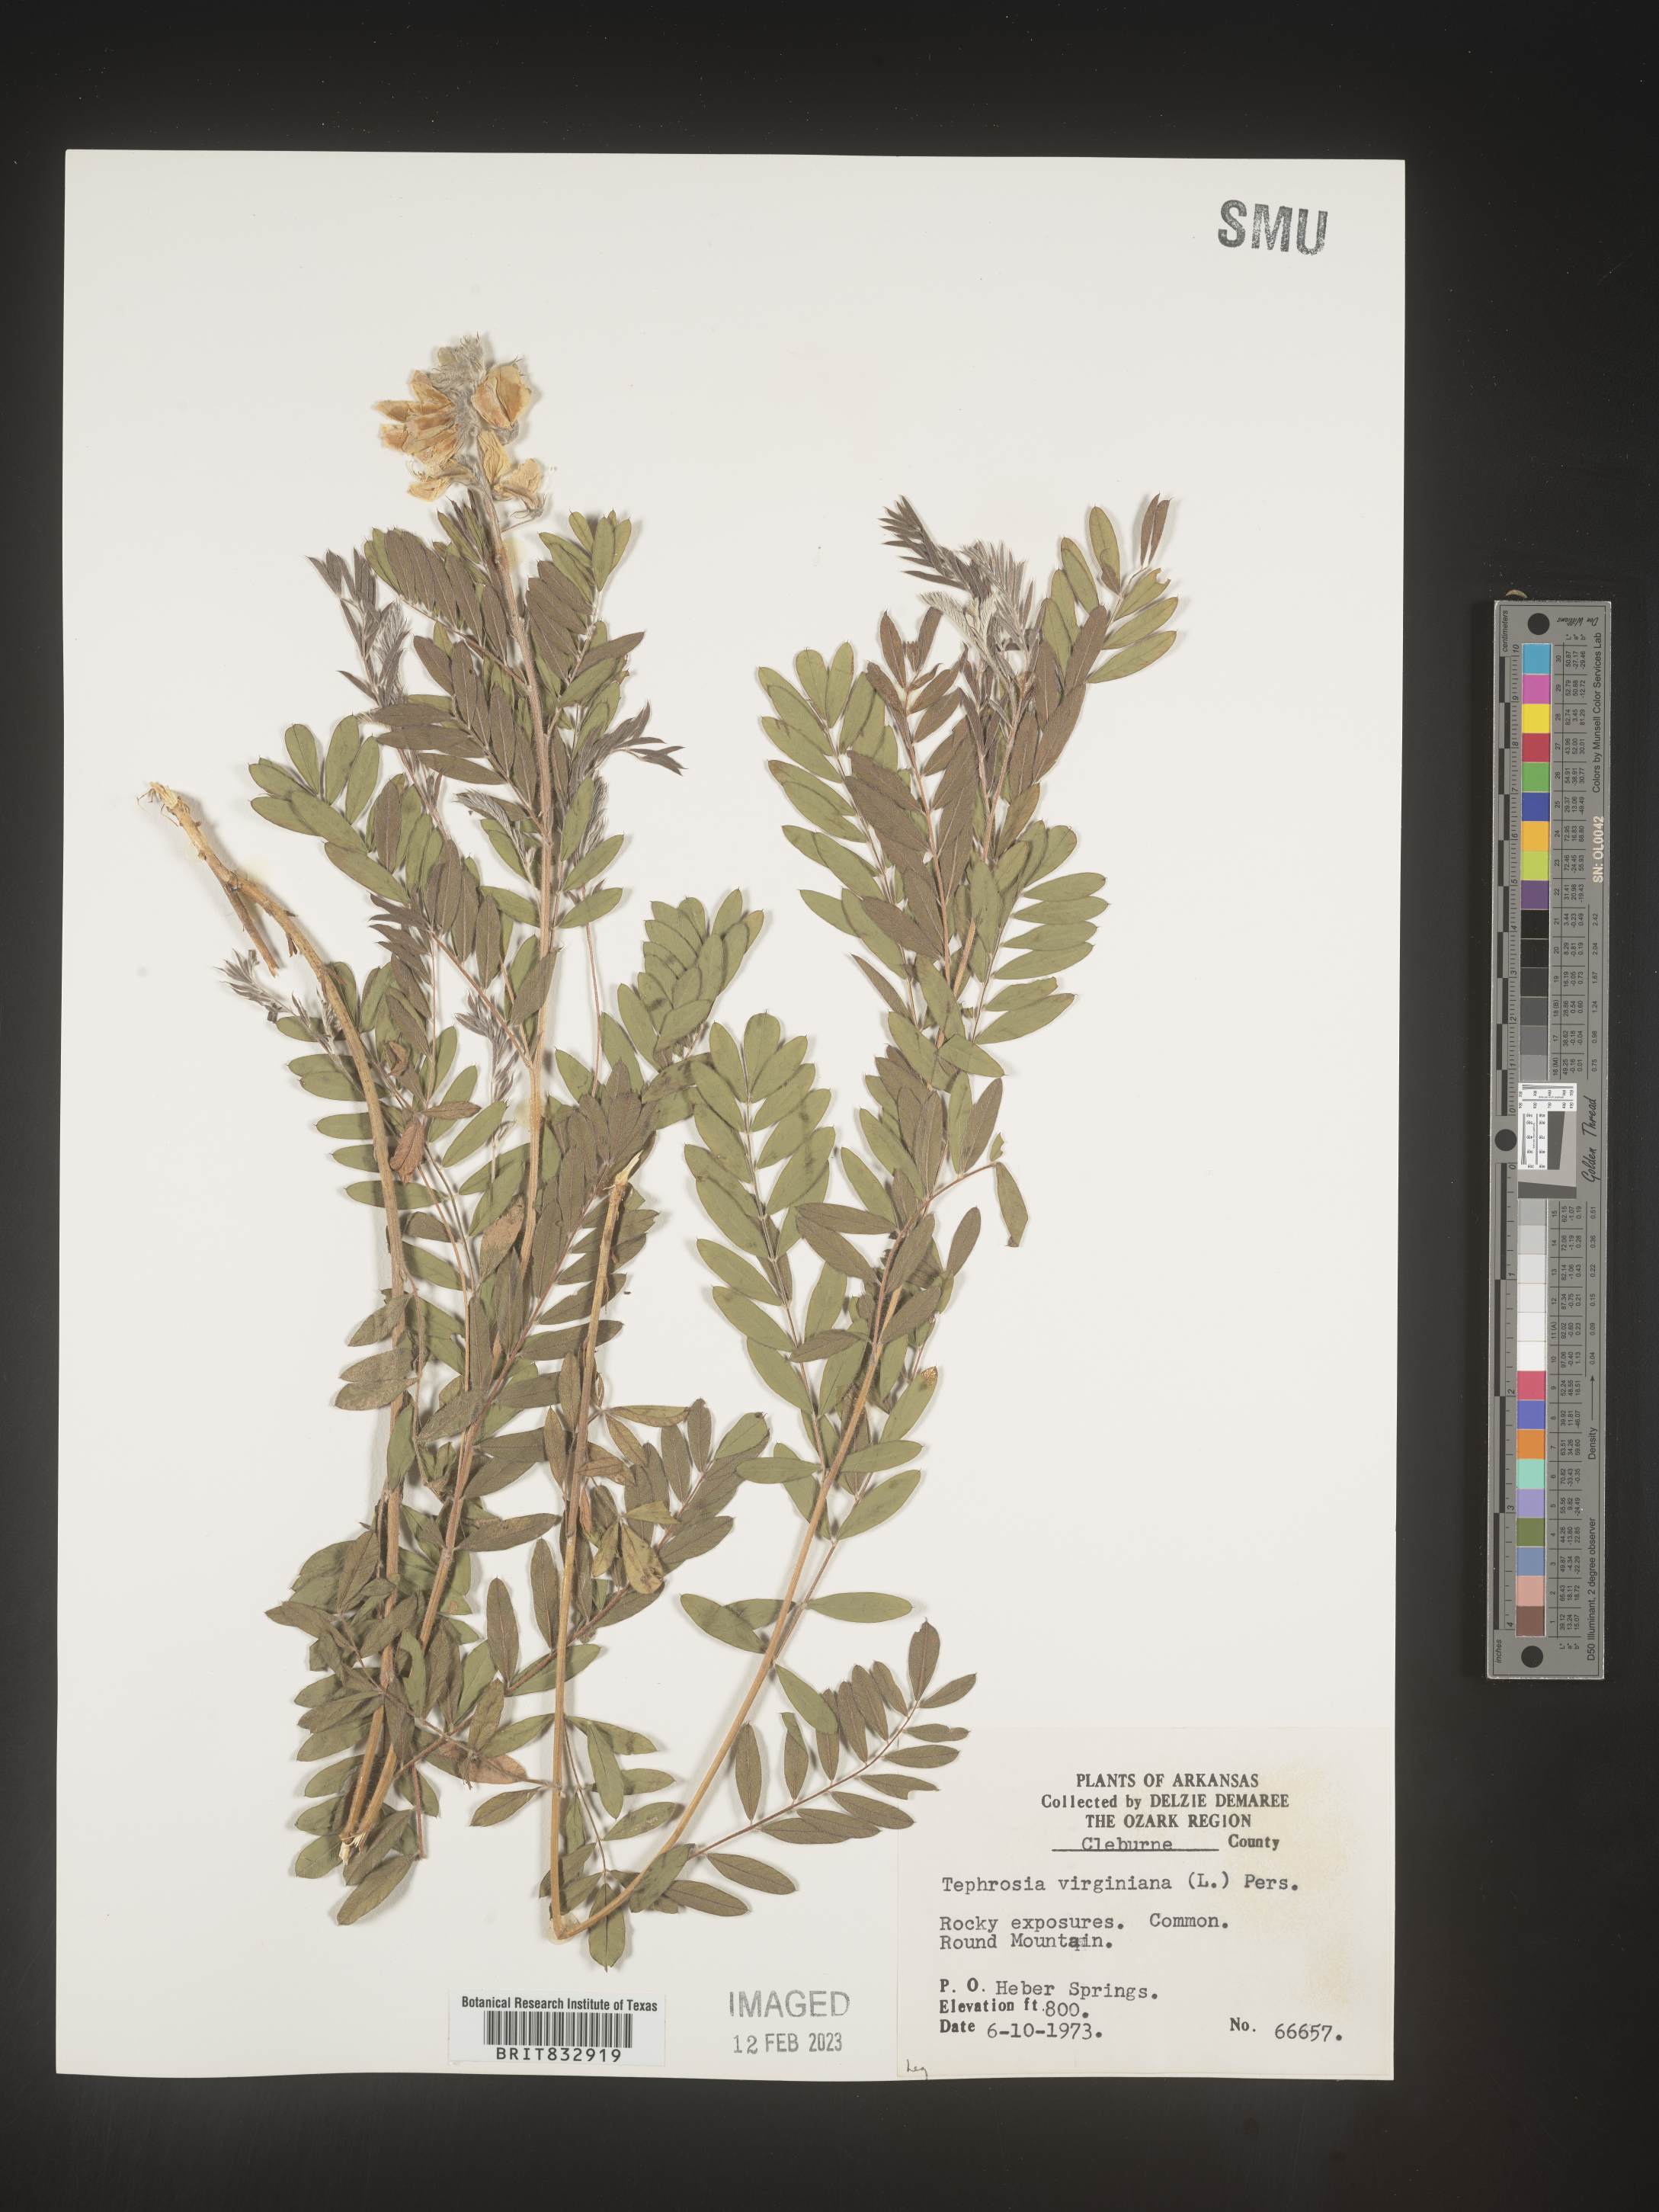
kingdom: Plantae
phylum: Tracheophyta
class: Magnoliopsida
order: Fabales
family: Fabaceae
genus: Tephrosia
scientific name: Tephrosia virginiana
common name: Rabbit-pea
